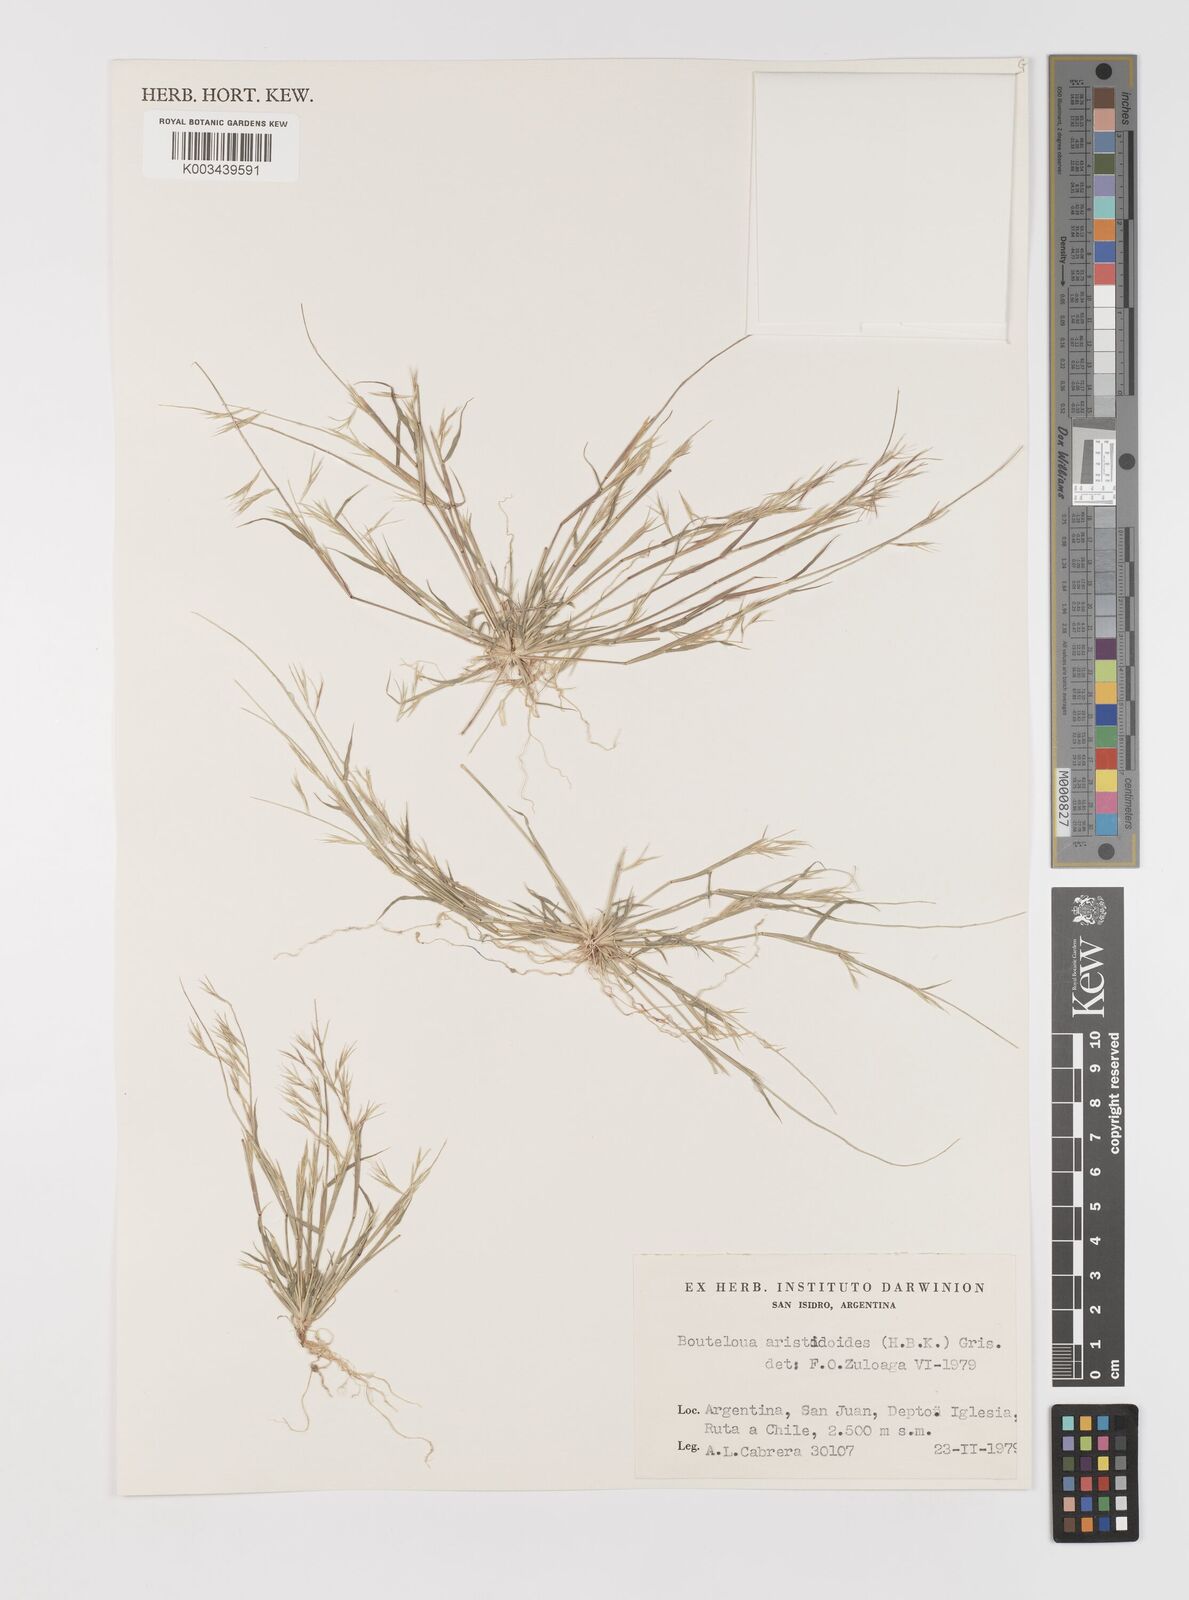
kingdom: Plantae
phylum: Tracheophyta
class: Liliopsida
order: Poales
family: Poaceae
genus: Bouteloua
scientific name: Bouteloua
